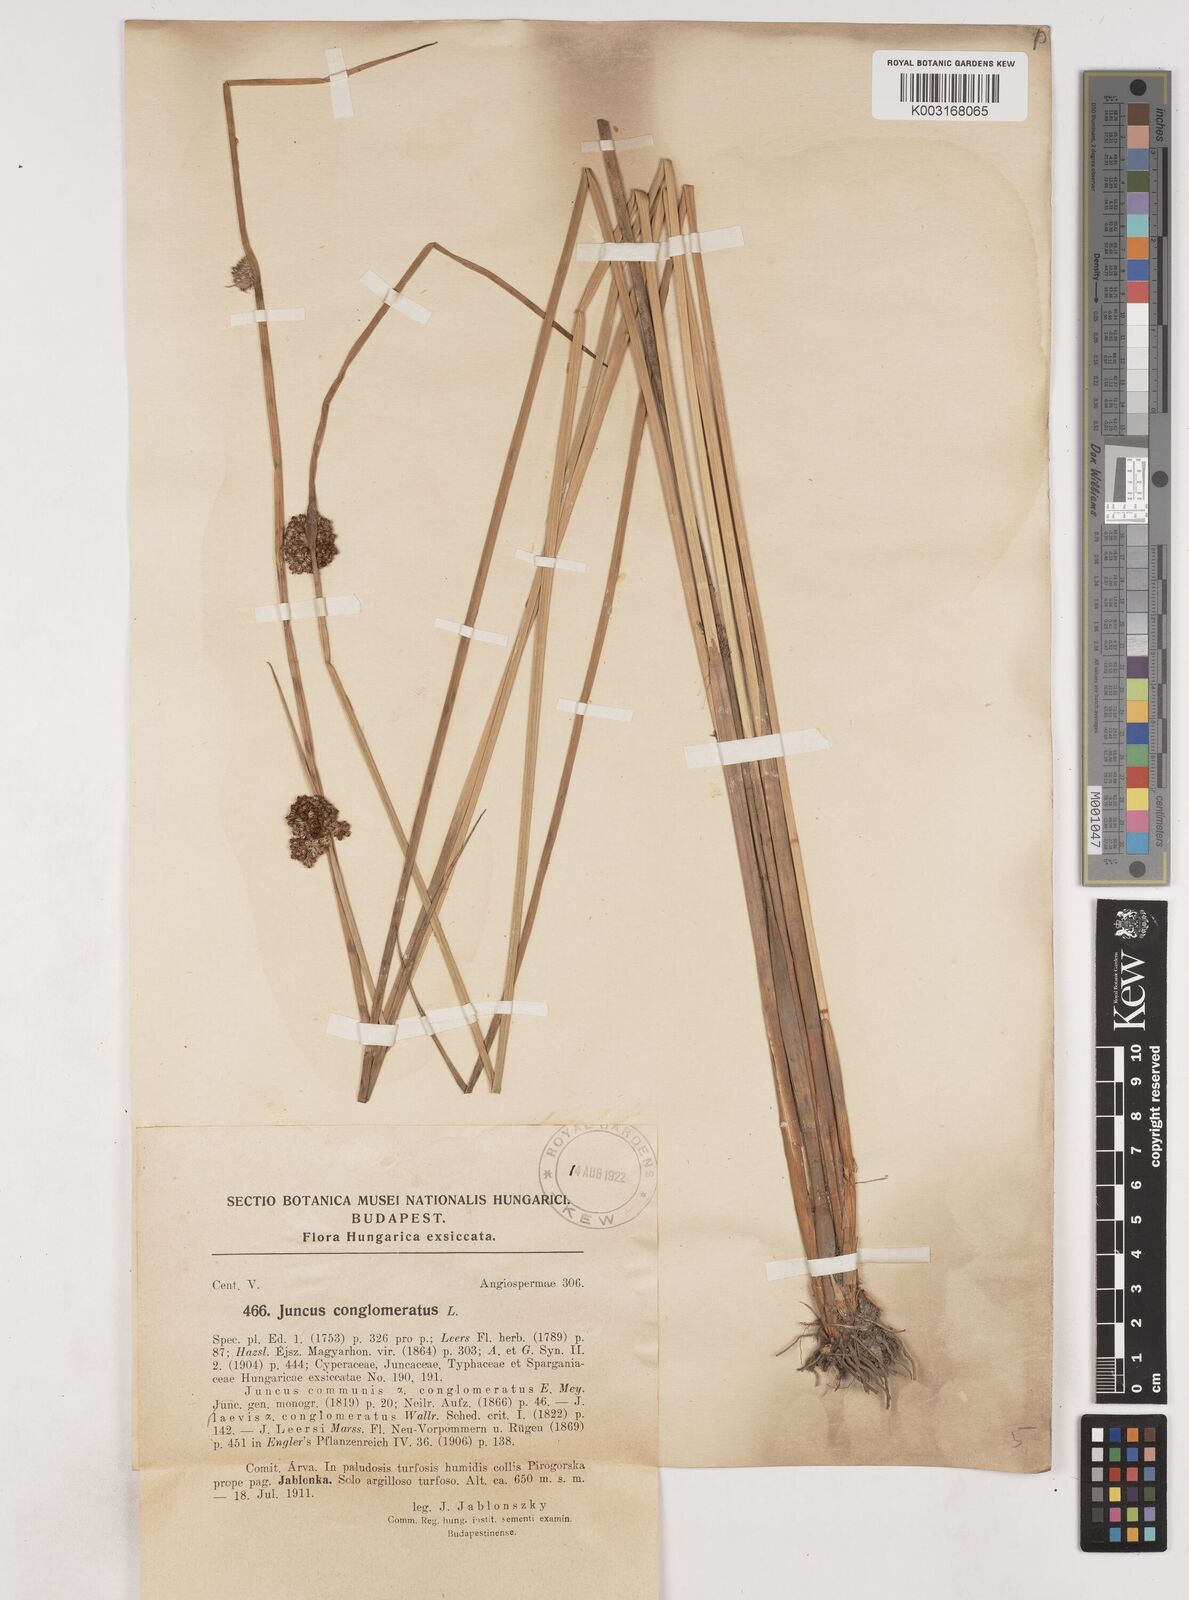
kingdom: Plantae
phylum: Tracheophyta
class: Liliopsida
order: Poales
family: Juncaceae
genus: Juncus
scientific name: Juncus conglomeratus
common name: Compact rush
